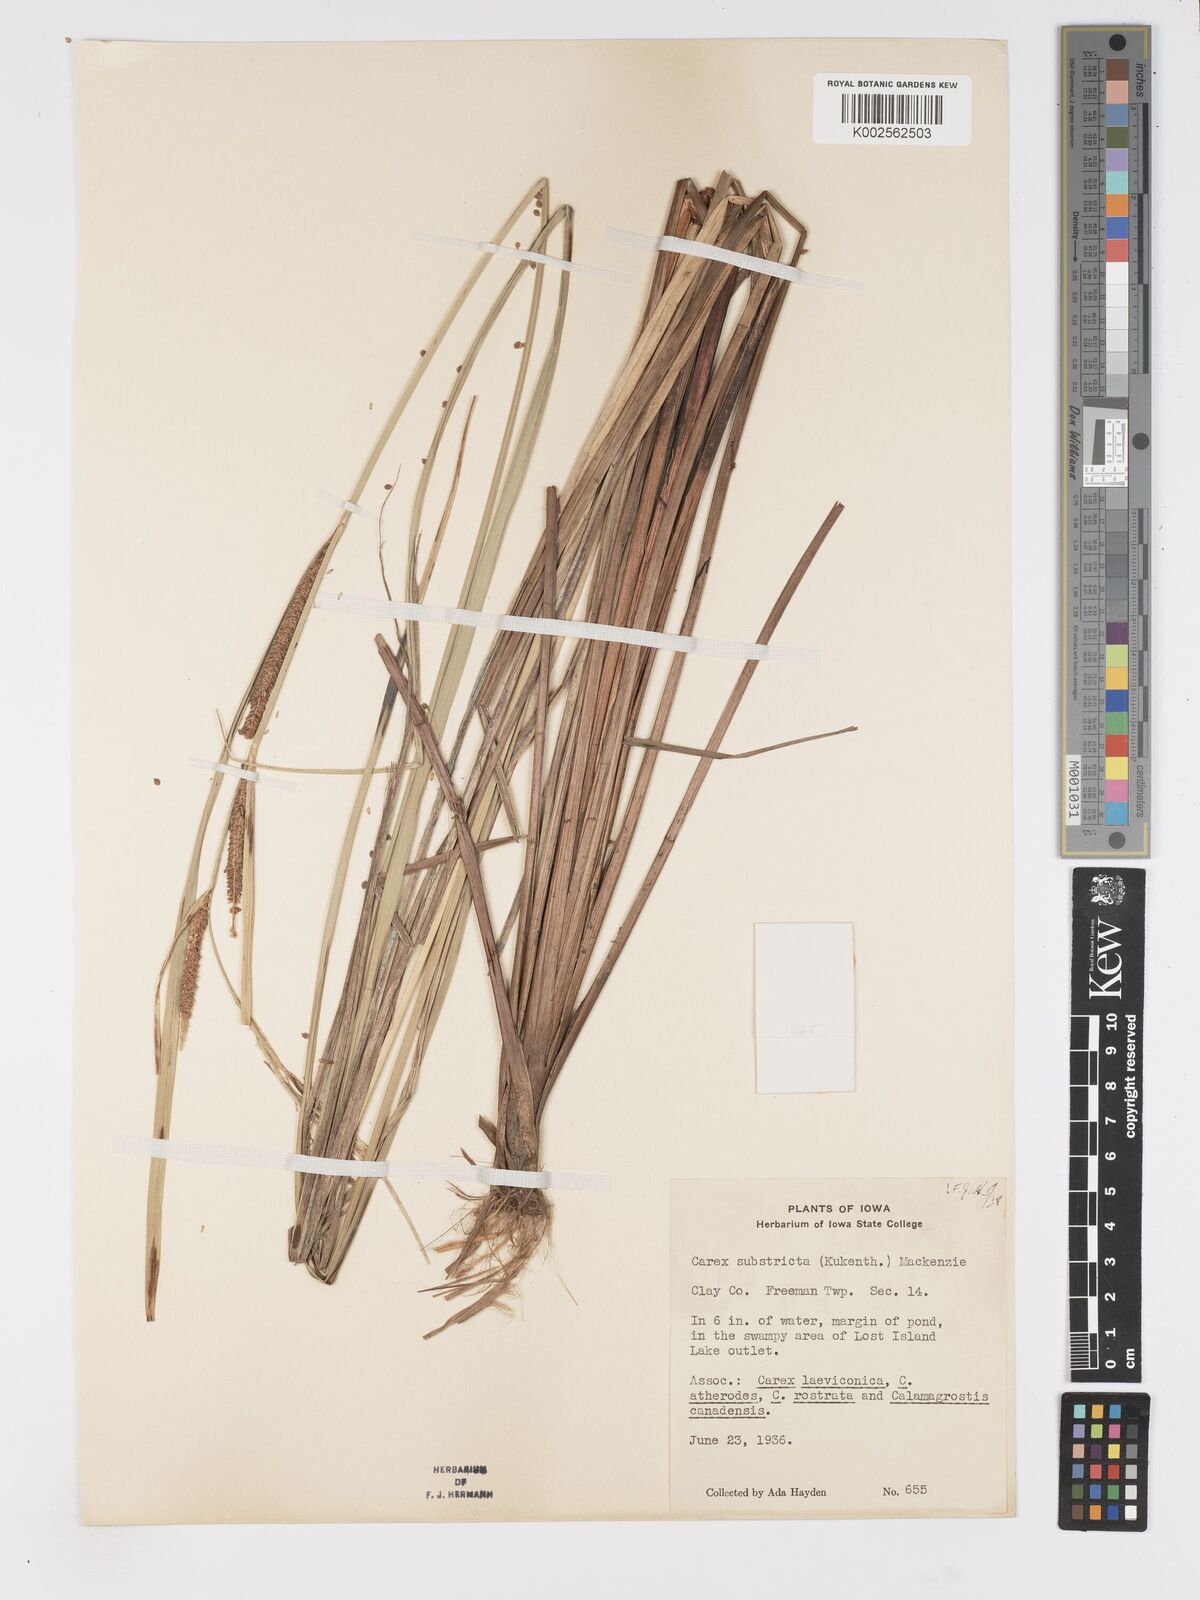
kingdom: Plantae
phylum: Tracheophyta
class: Liliopsida
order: Poales
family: Cyperaceae
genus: Carex
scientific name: Carex aquatilis
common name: Water sedge
